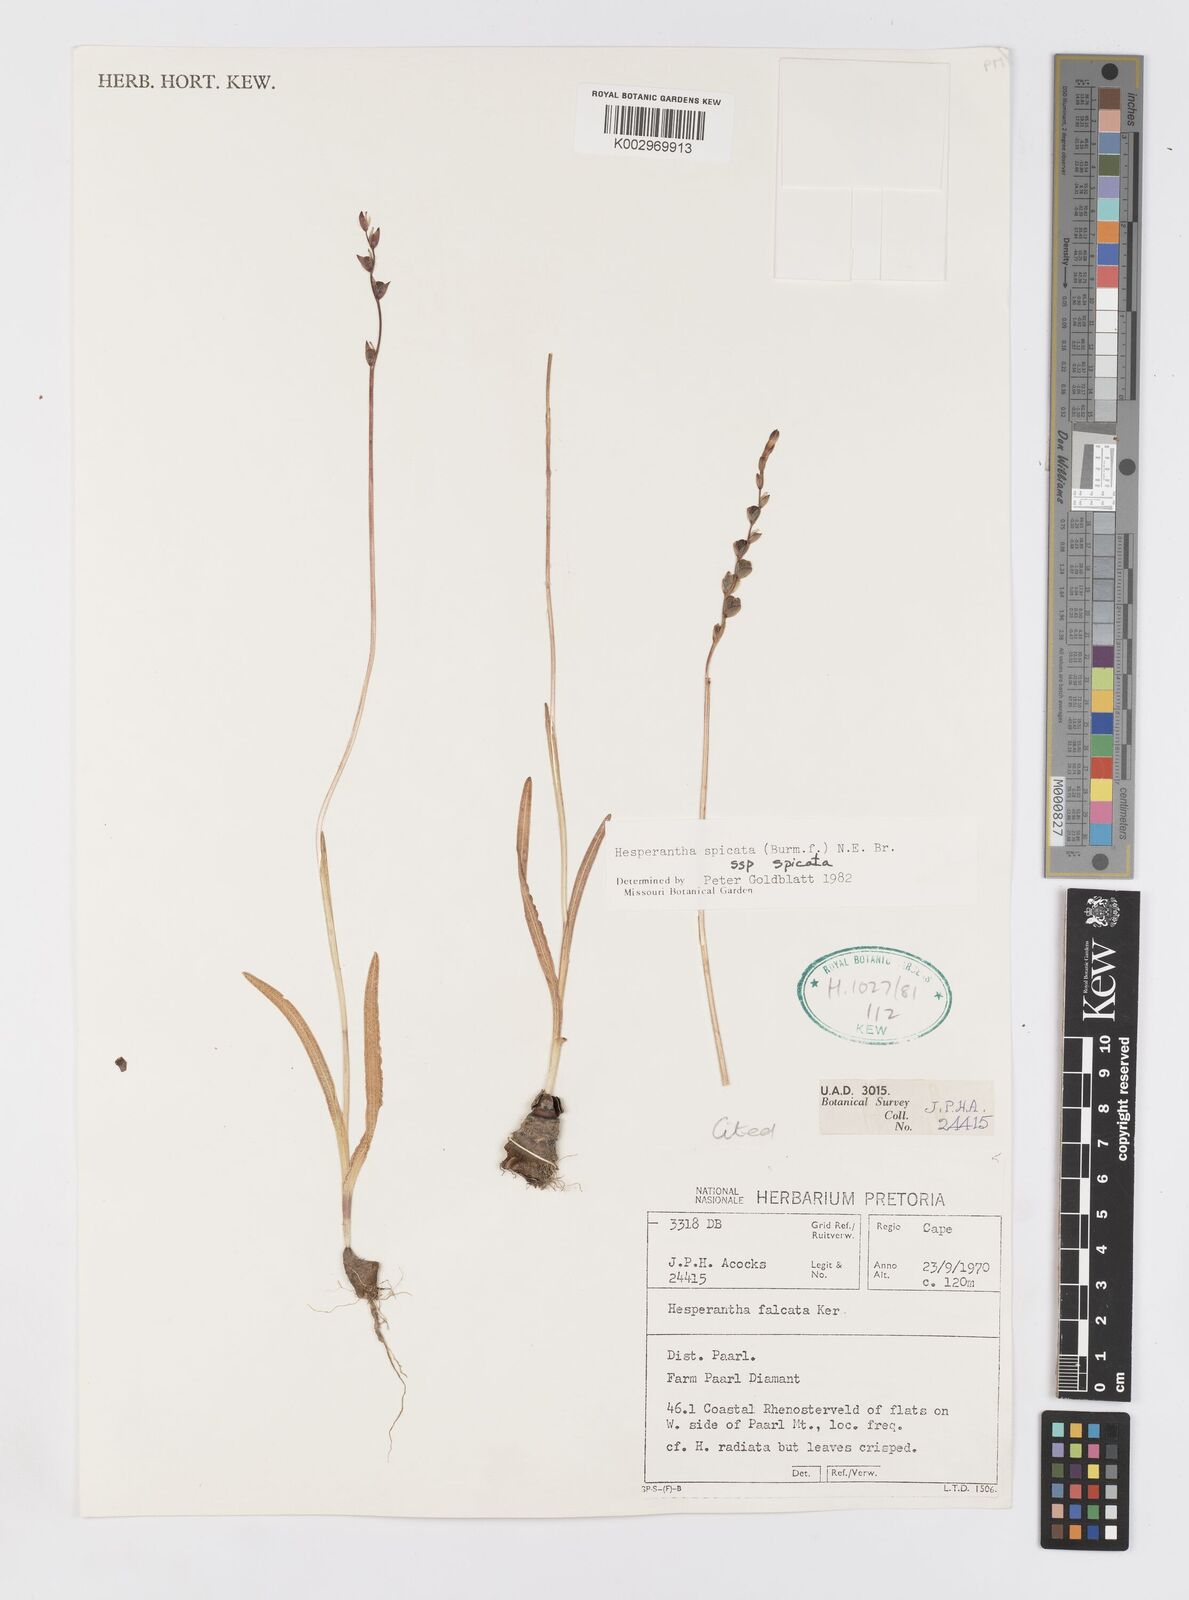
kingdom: Plantae
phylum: Tracheophyta
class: Liliopsida
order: Asparagales
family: Iridaceae
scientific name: Iridaceae
